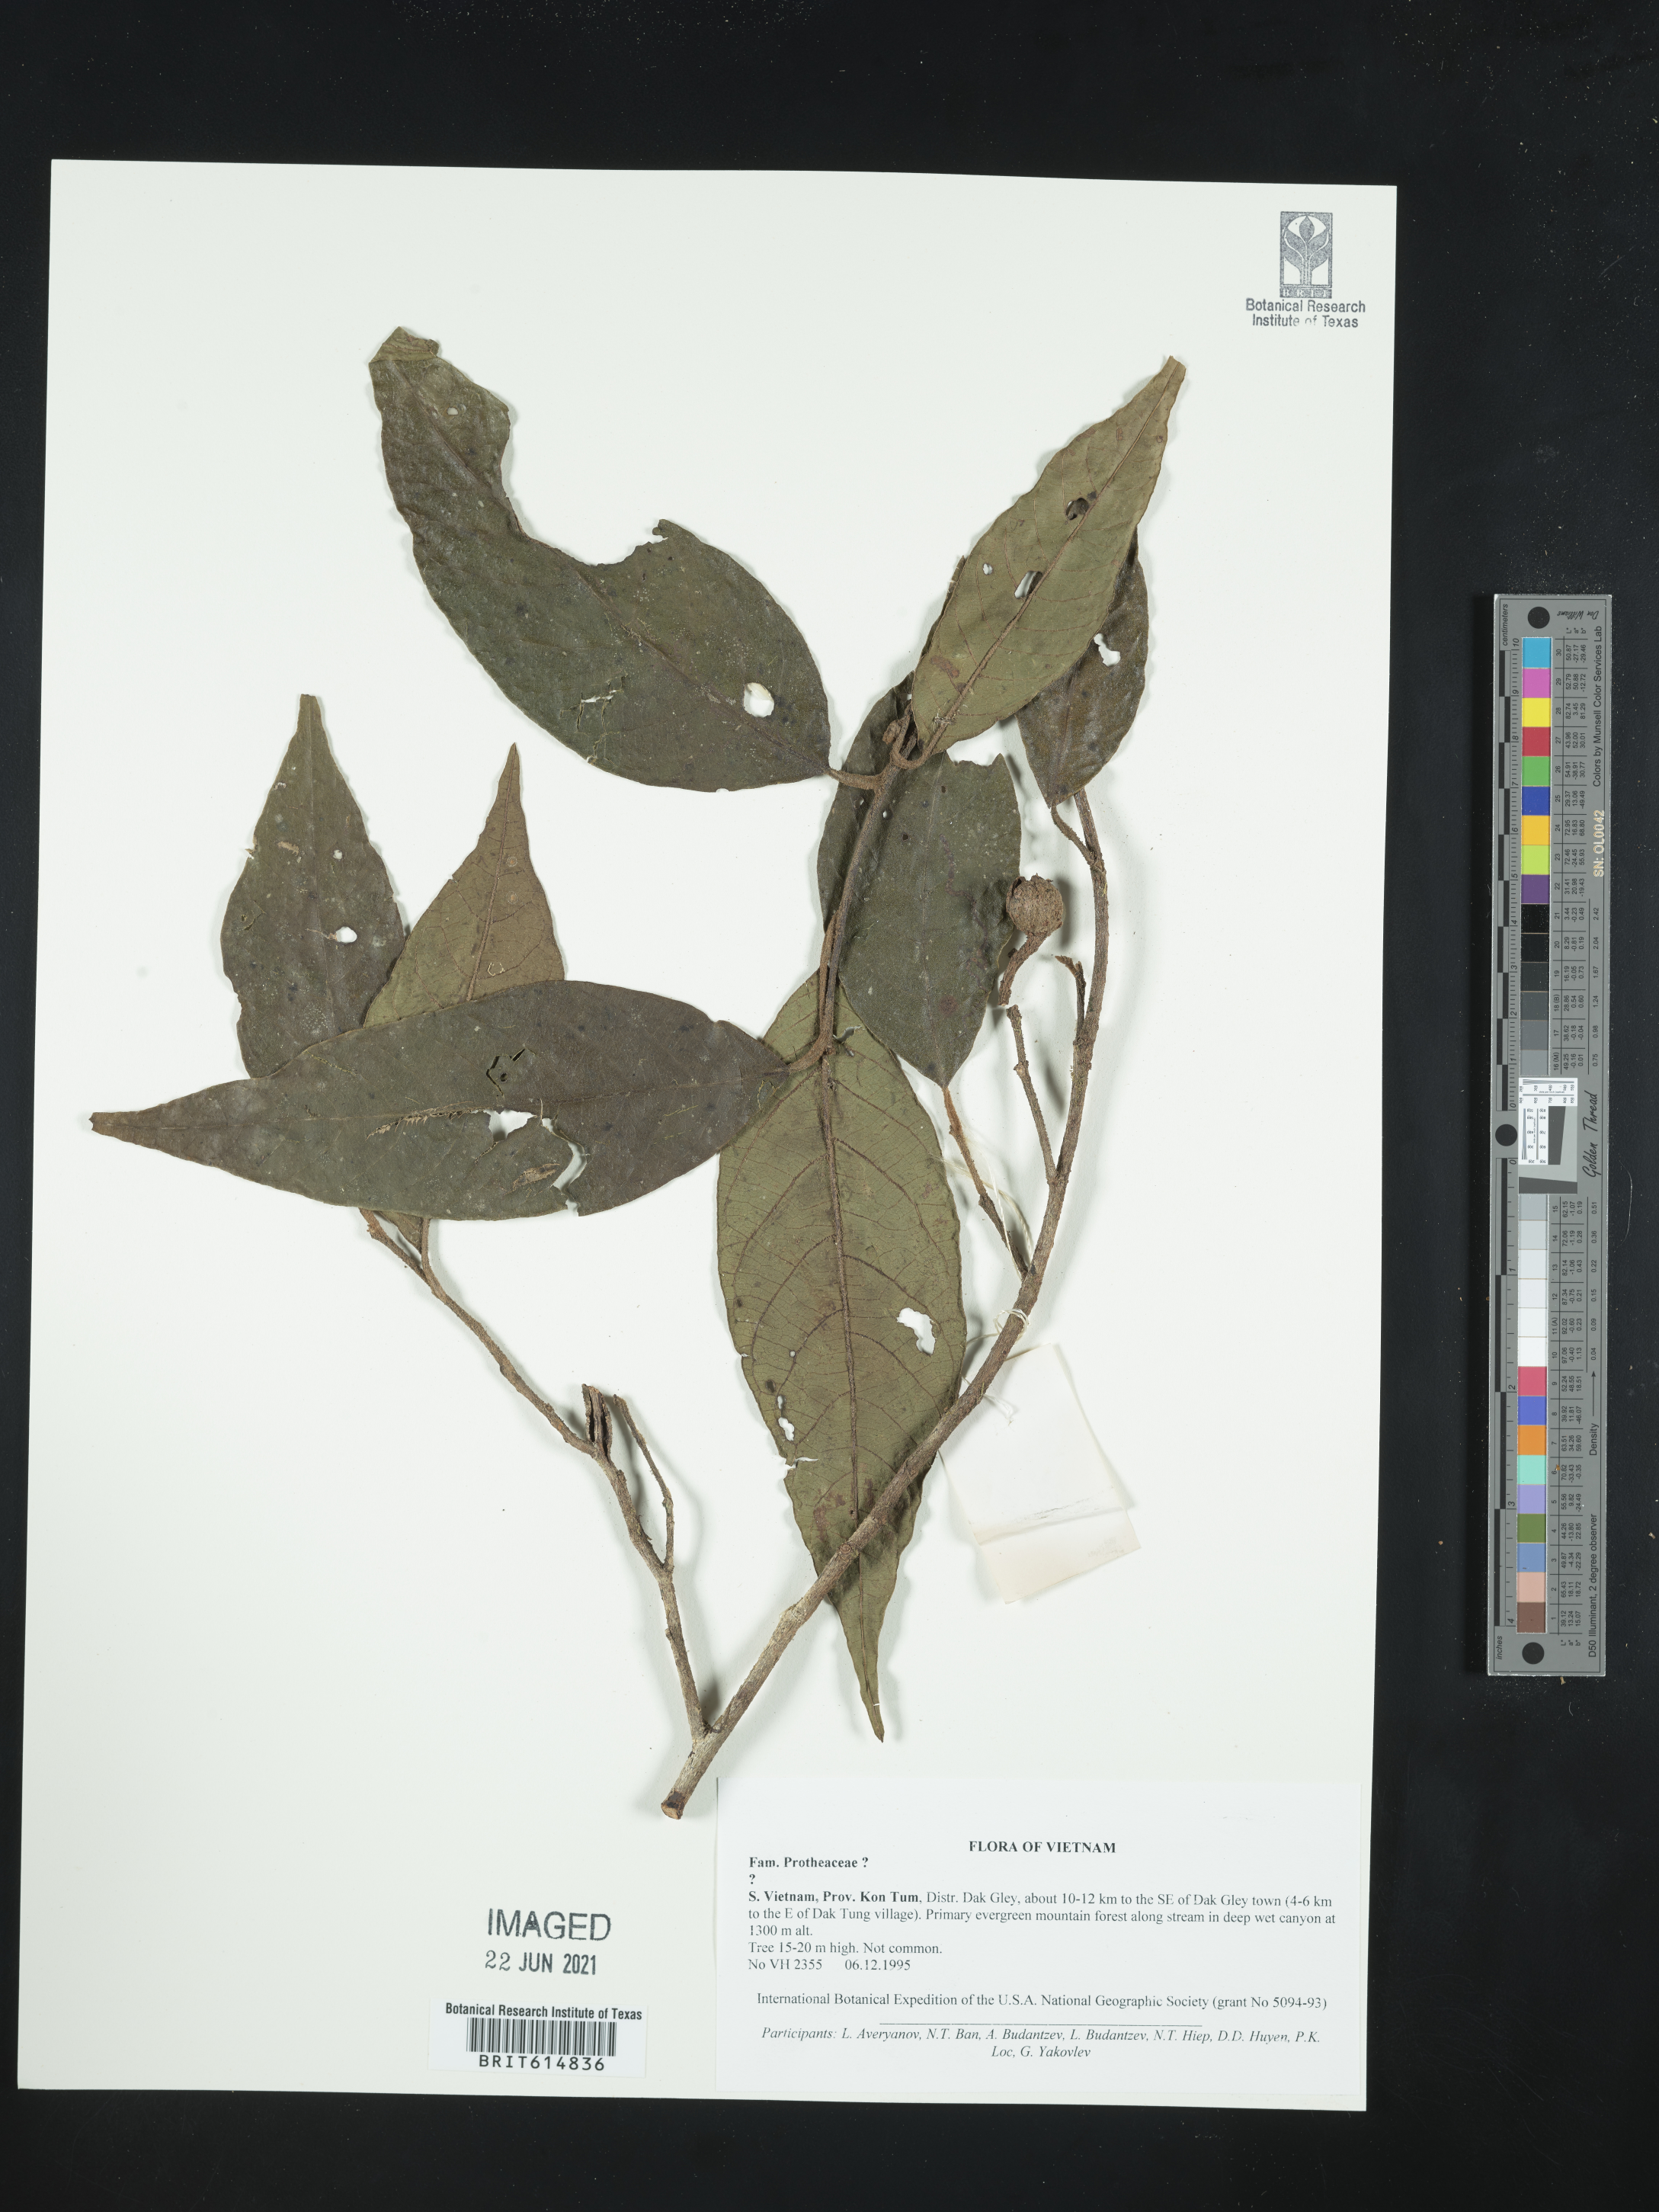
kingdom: Plantae
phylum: Tracheophyta
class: Magnoliopsida
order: Proteales
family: Proteaceae
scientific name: Proteaceae
